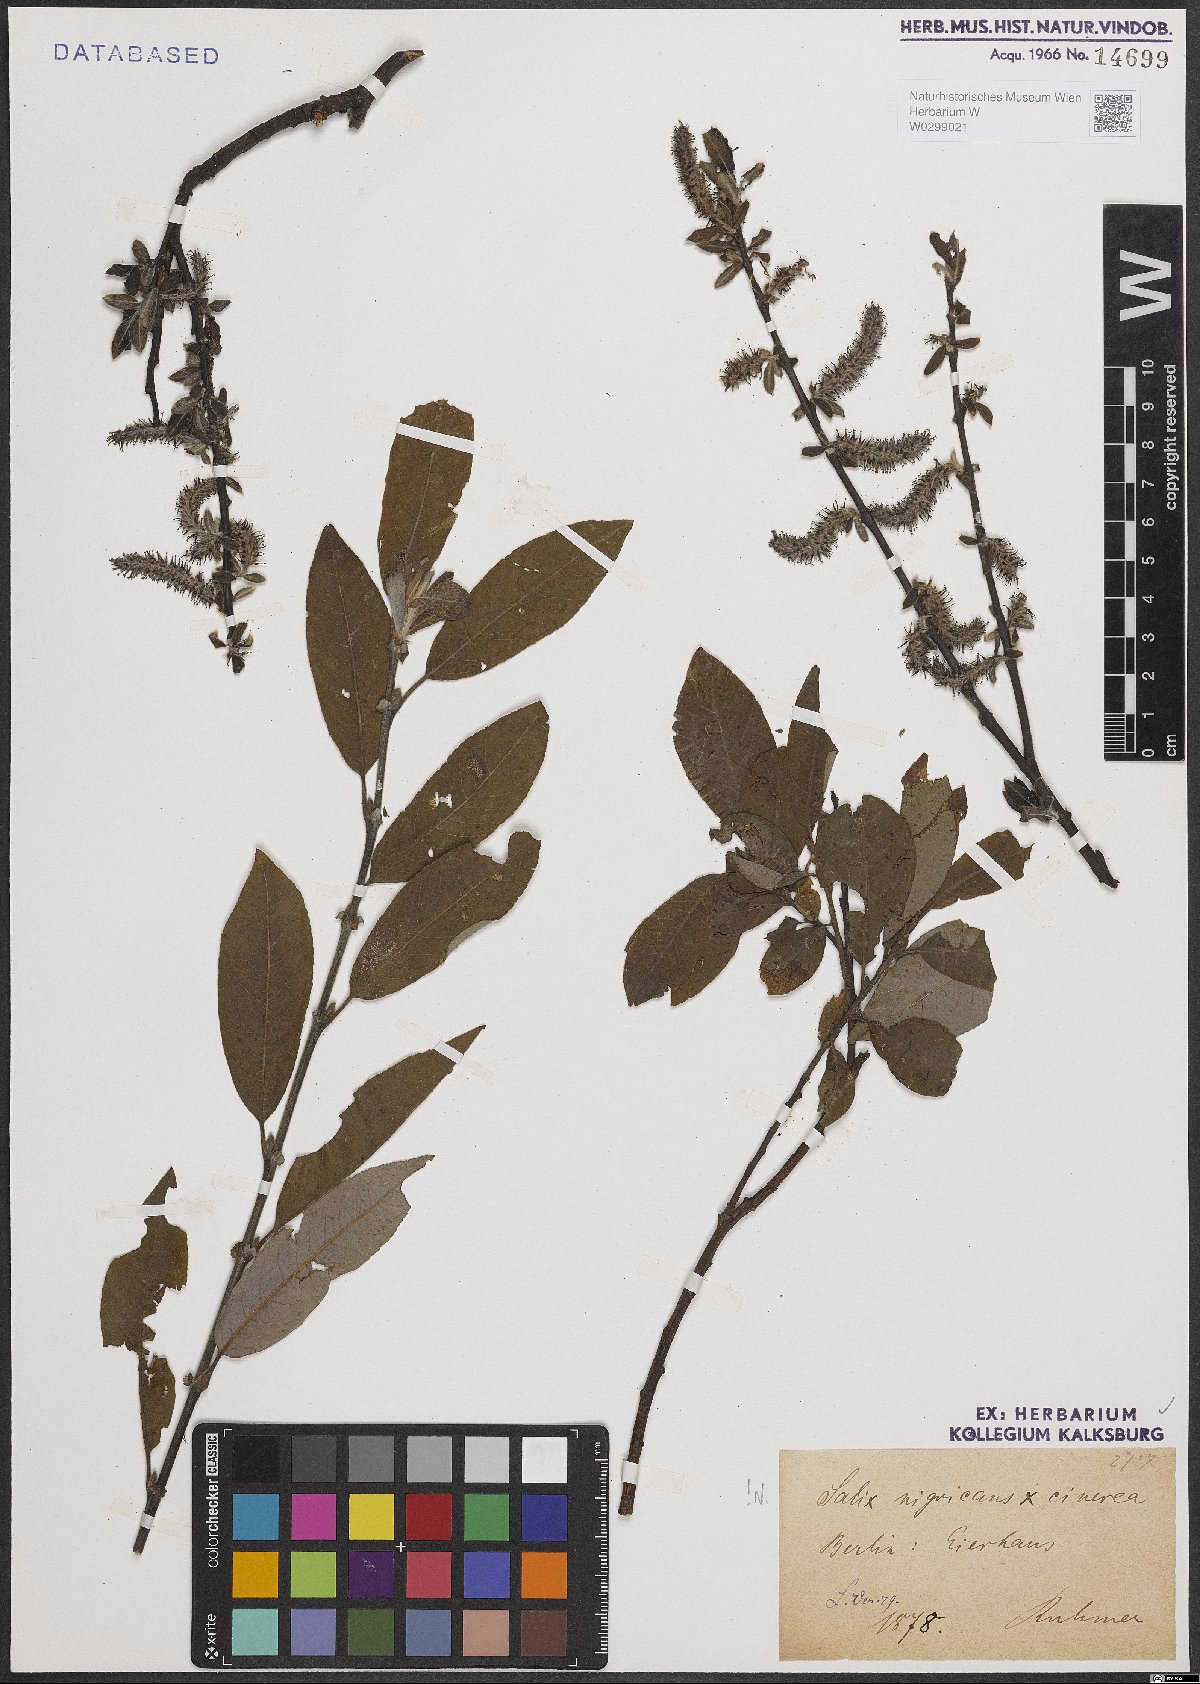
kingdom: Plantae
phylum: Tracheophyta
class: Magnoliopsida
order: Malpighiales
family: Salicaceae
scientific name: Salicaceae
